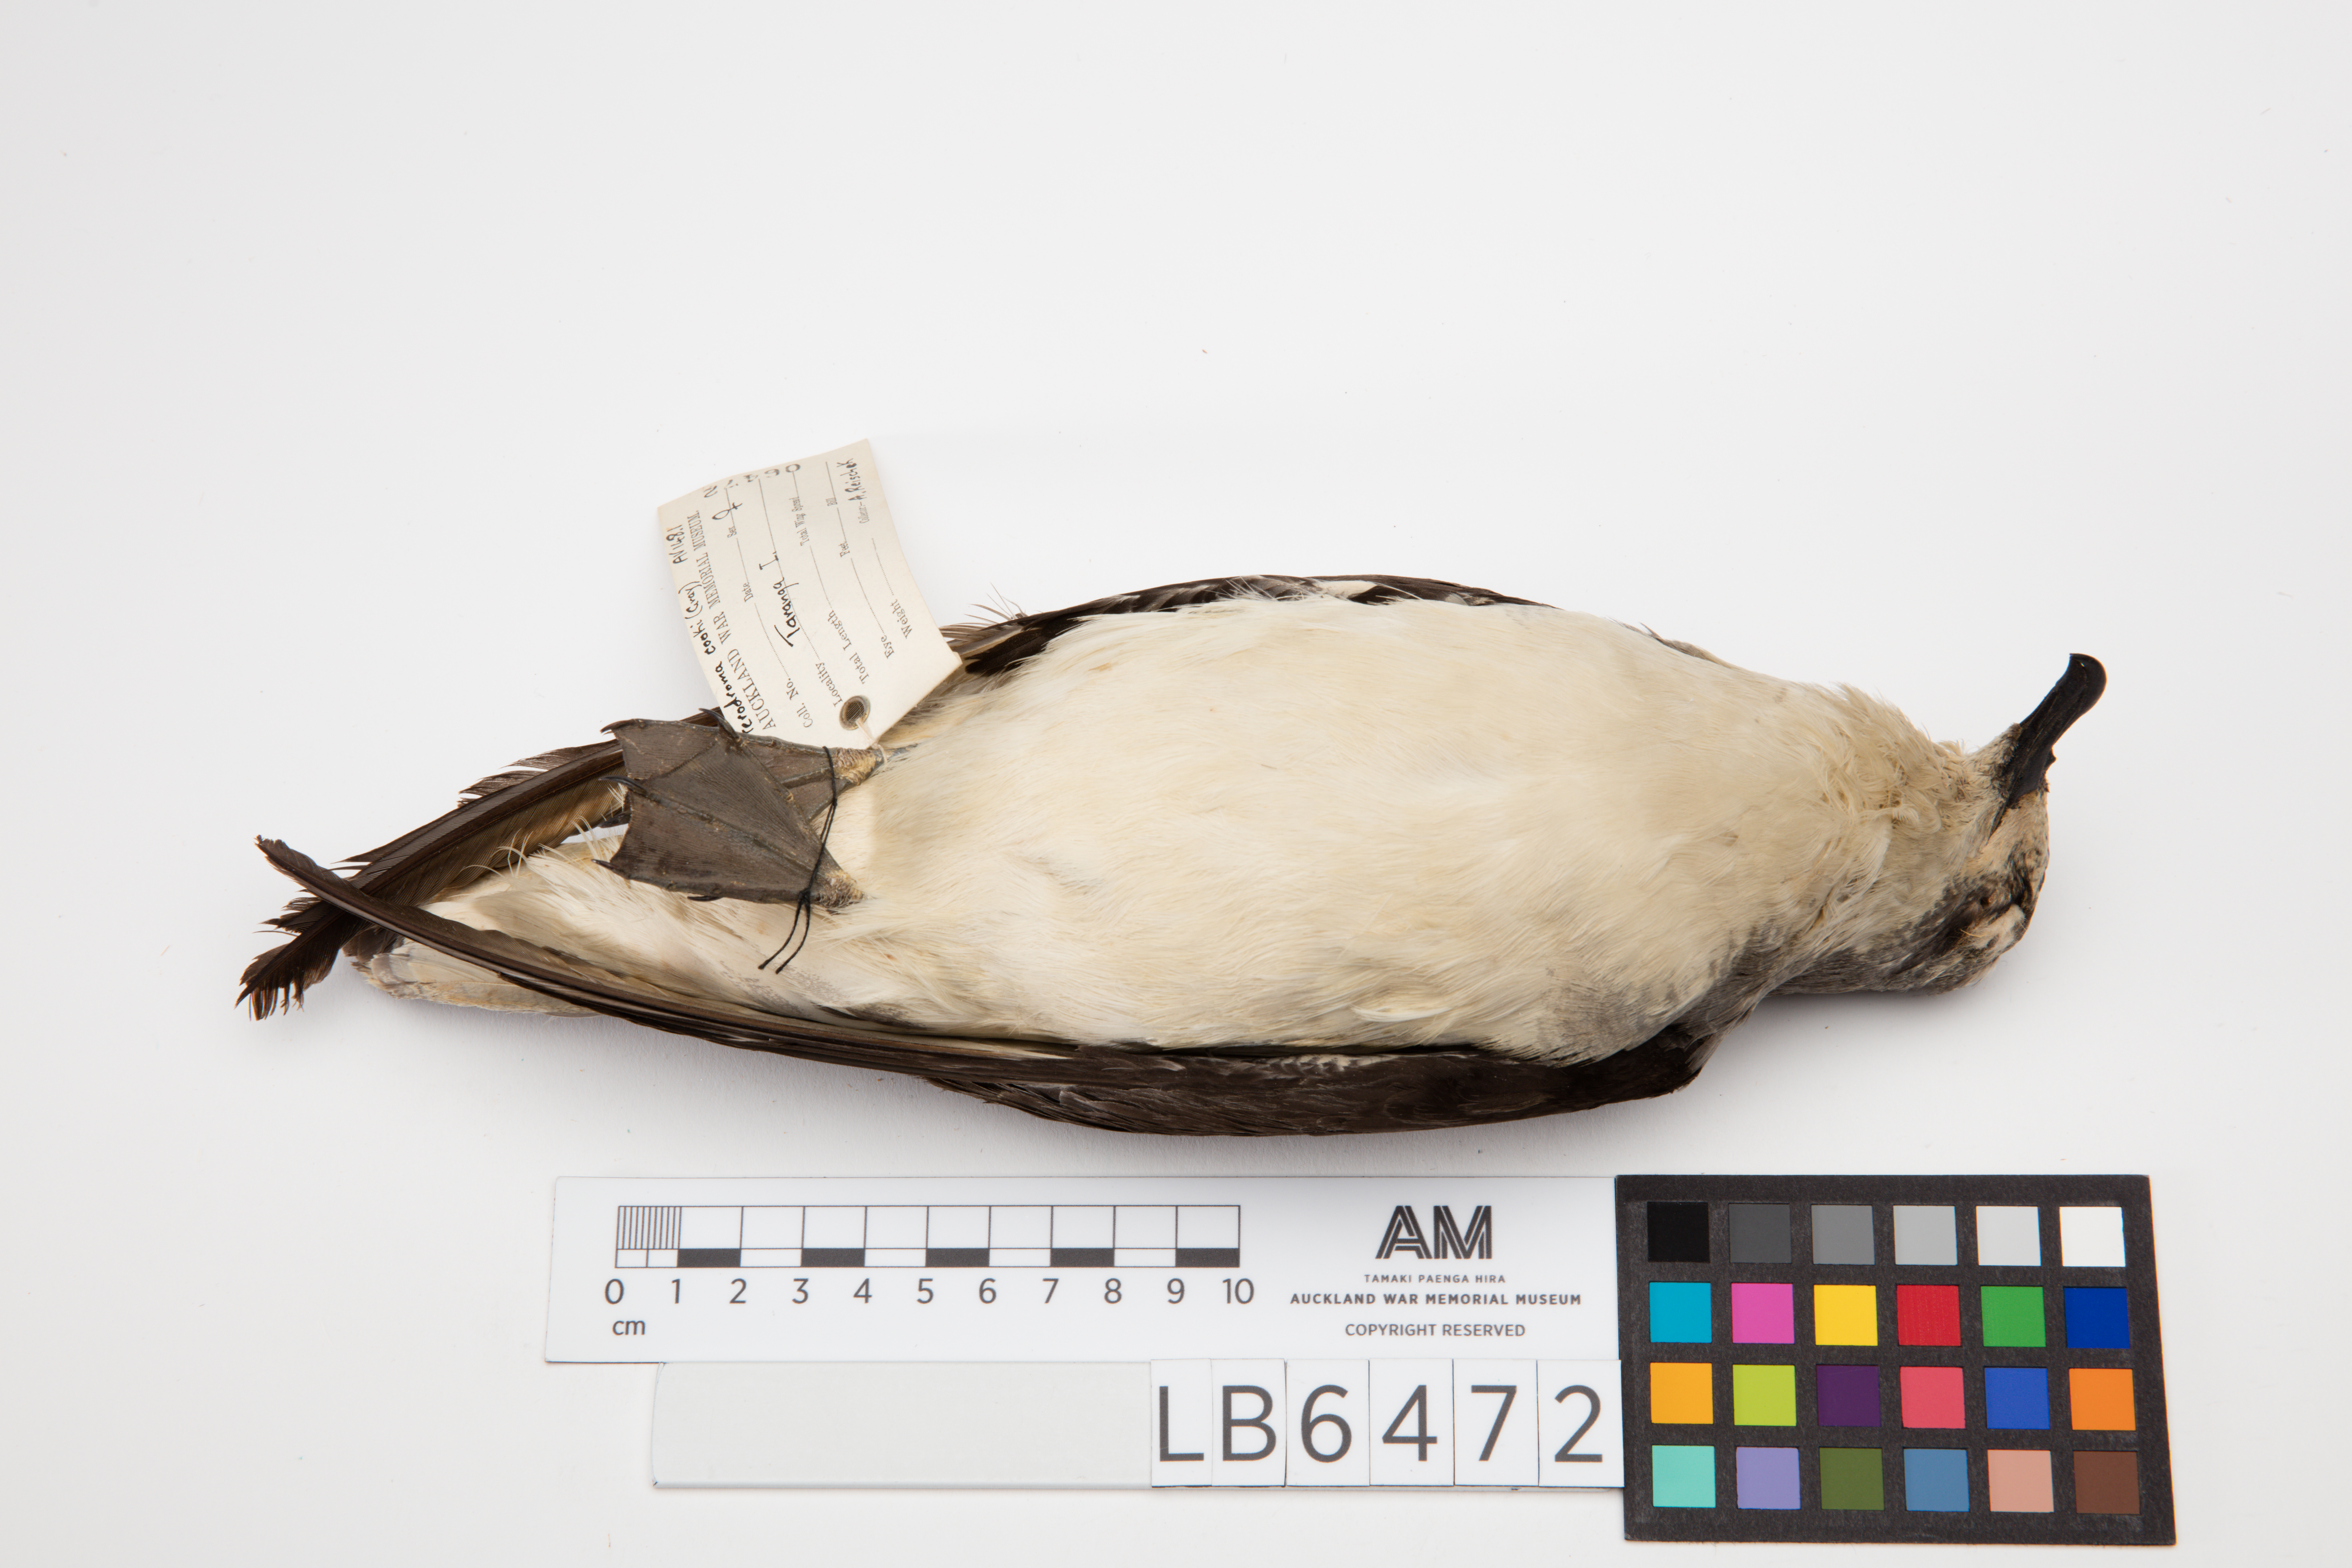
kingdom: Animalia
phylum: Chordata
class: Aves
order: Procellariiformes
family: Procellariidae
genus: Pterodroma
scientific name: Pterodroma cookii
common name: Cook's petrel
